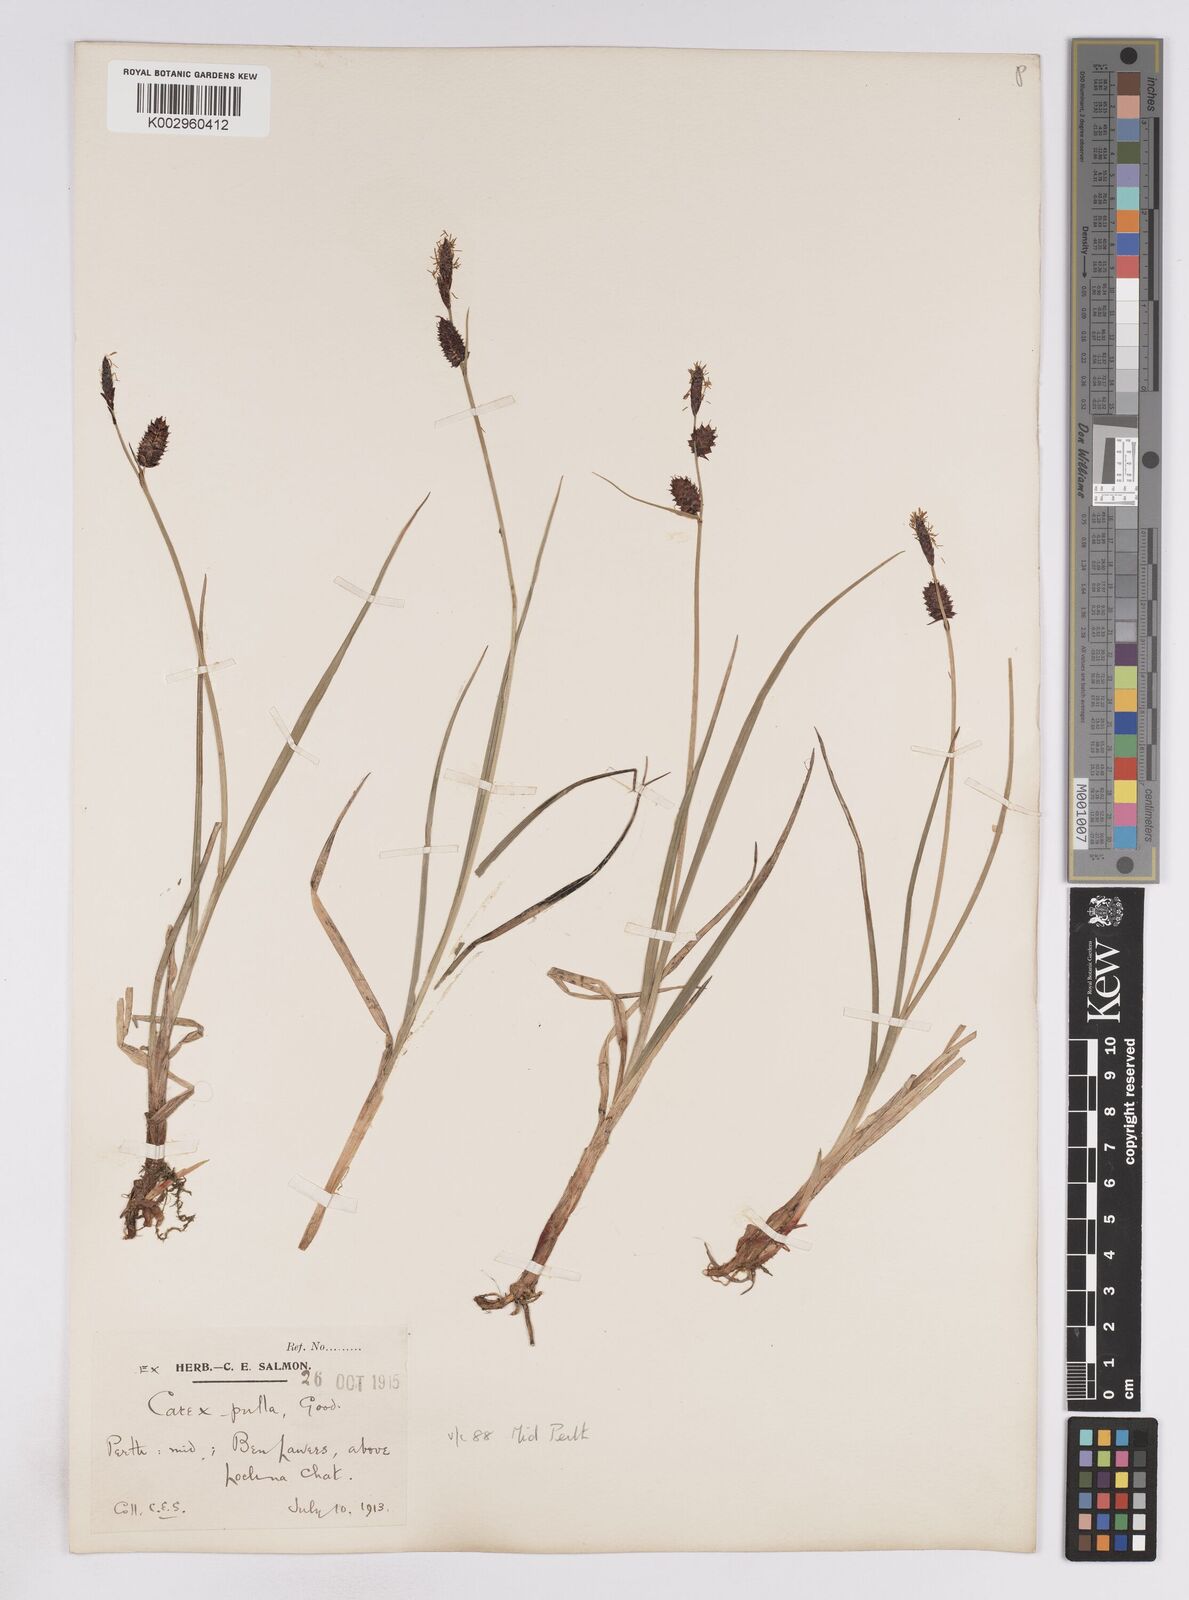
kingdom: Plantae
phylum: Tracheophyta
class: Liliopsida
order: Poales
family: Cyperaceae
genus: Carex
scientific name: Carex saxatilis
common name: Russet sedge
